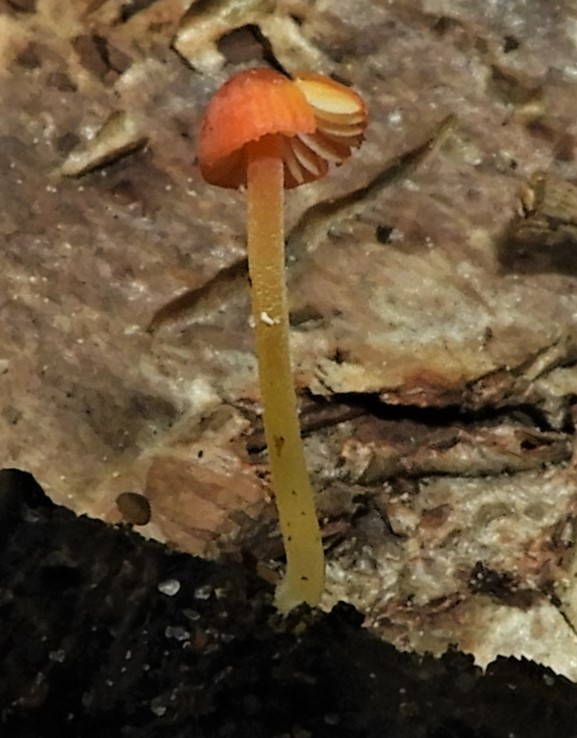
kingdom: Fungi
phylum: Basidiomycota
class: Agaricomycetes
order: Agaricales
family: Mycenaceae
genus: Mycena
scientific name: Mycena acicula
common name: orange huesvamp
